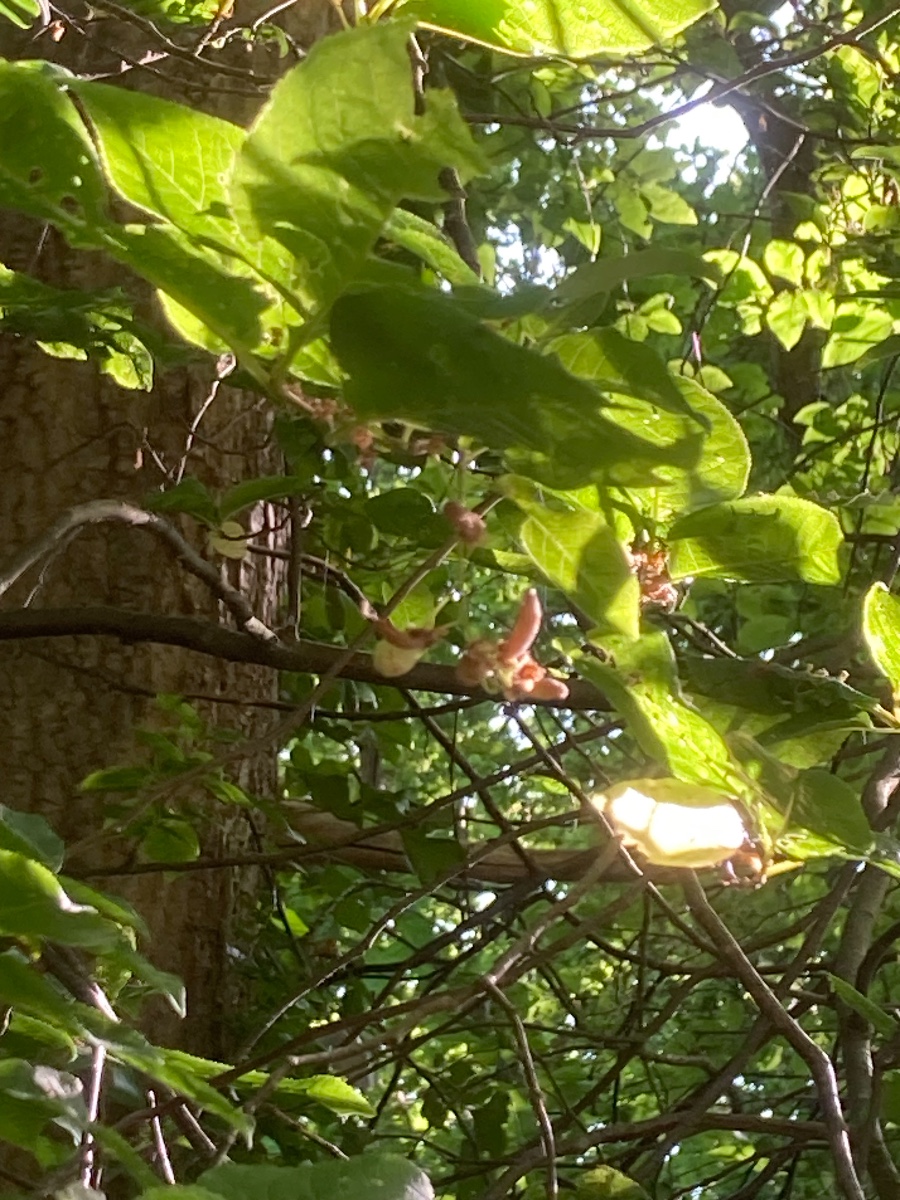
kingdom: Fungi
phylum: Ascomycota
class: Taphrinomycetes
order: Taphrinales
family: Taphrinaceae
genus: Taphrina
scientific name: Taphrina padi
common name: Bird cherry pocket
